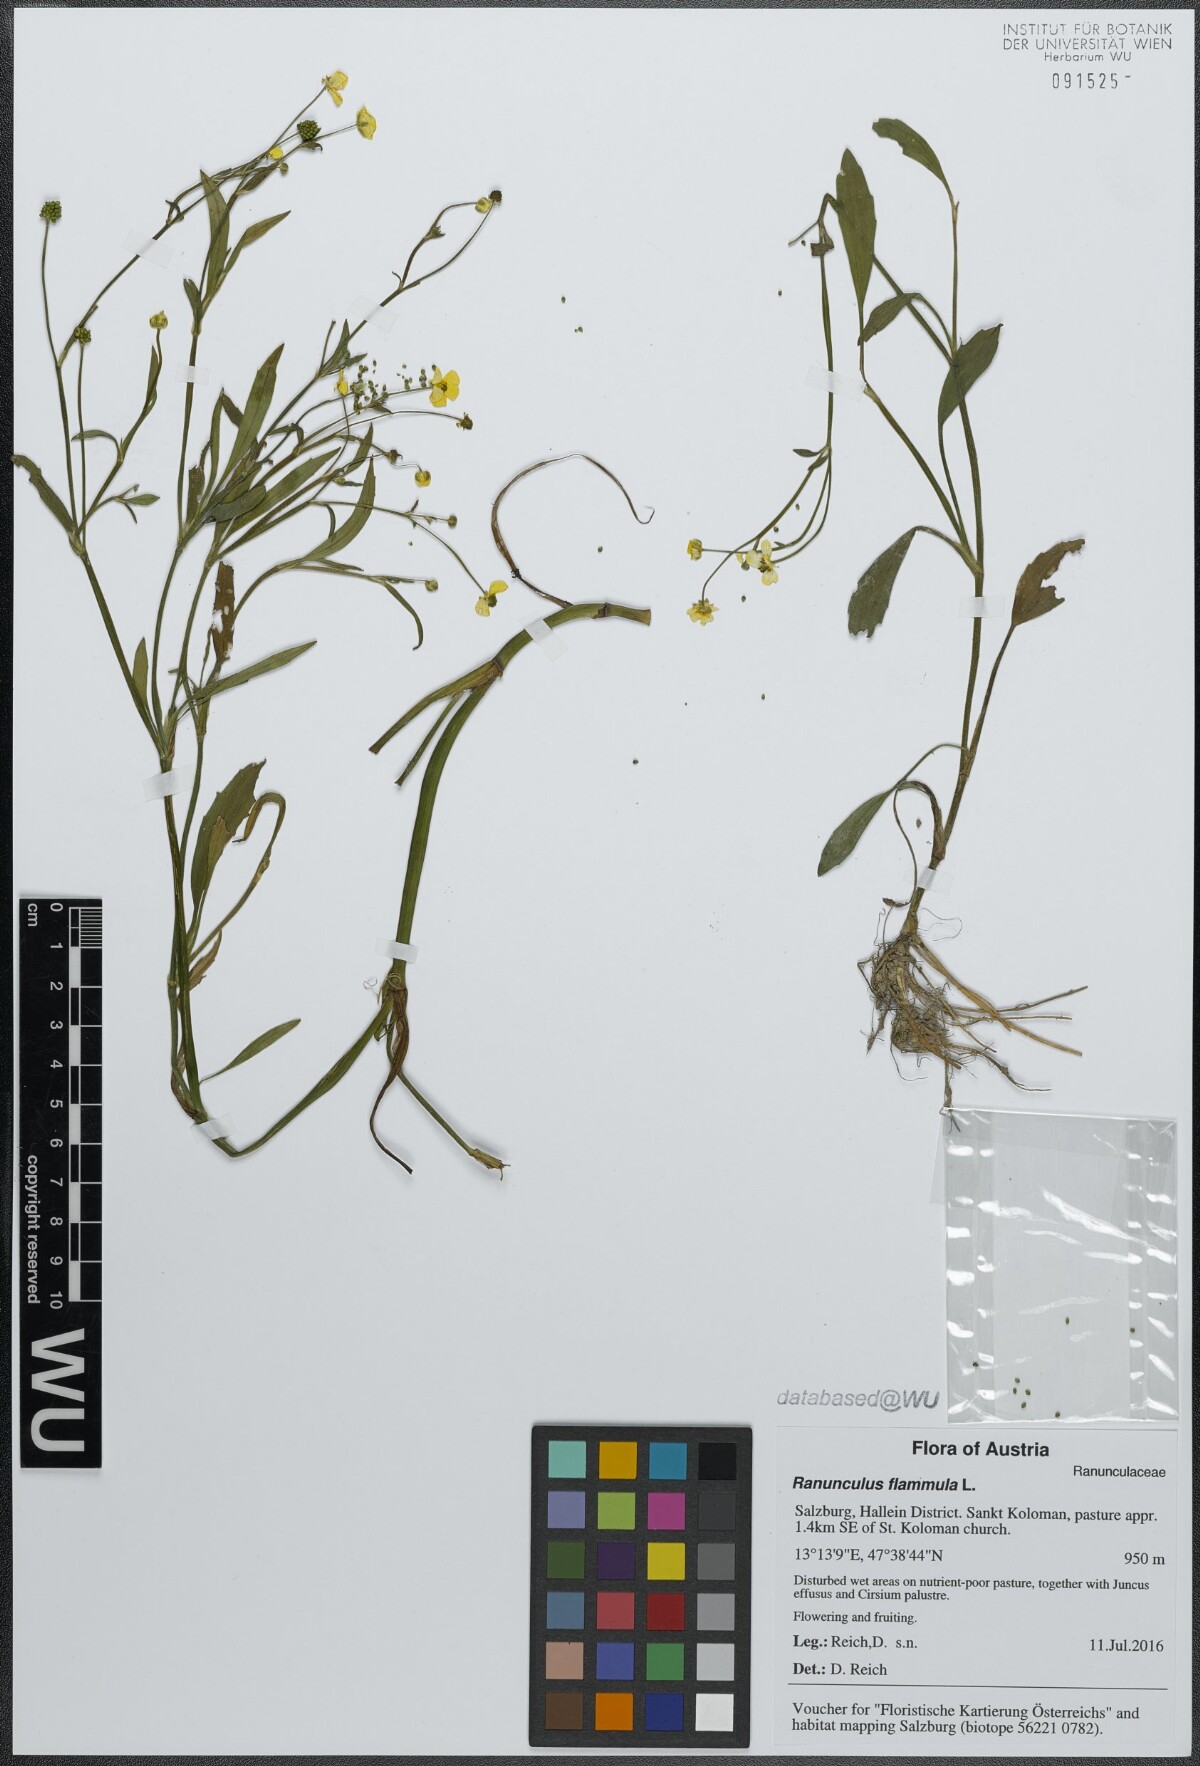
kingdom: Plantae
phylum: Tracheophyta
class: Magnoliopsida
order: Ranunculales
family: Ranunculaceae
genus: Ranunculus
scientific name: Ranunculus flammula
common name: Lesser spearwort
